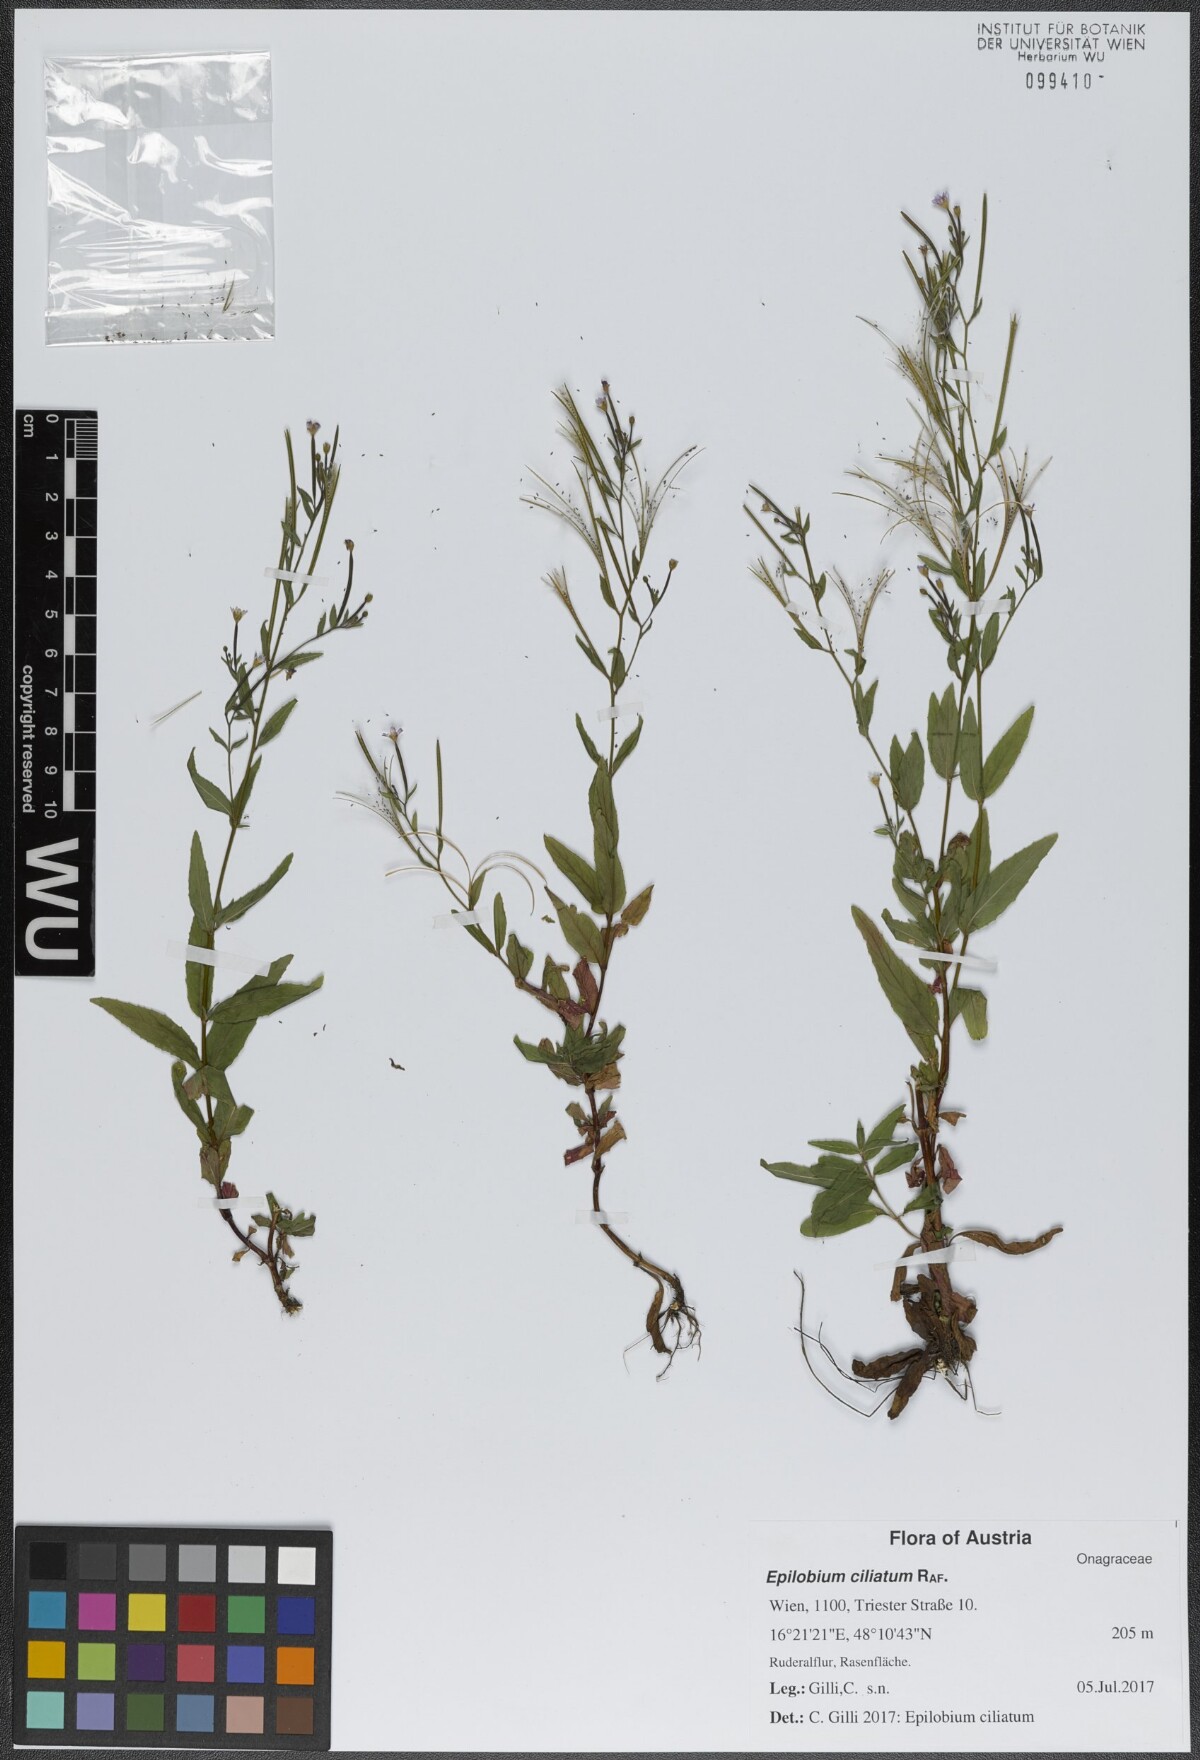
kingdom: Plantae
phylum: Tracheophyta
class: Magnoliopsida
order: Myrtales
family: Onagraceae
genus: Epilobium
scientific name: Epilobium ciliatum
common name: American willowherb
